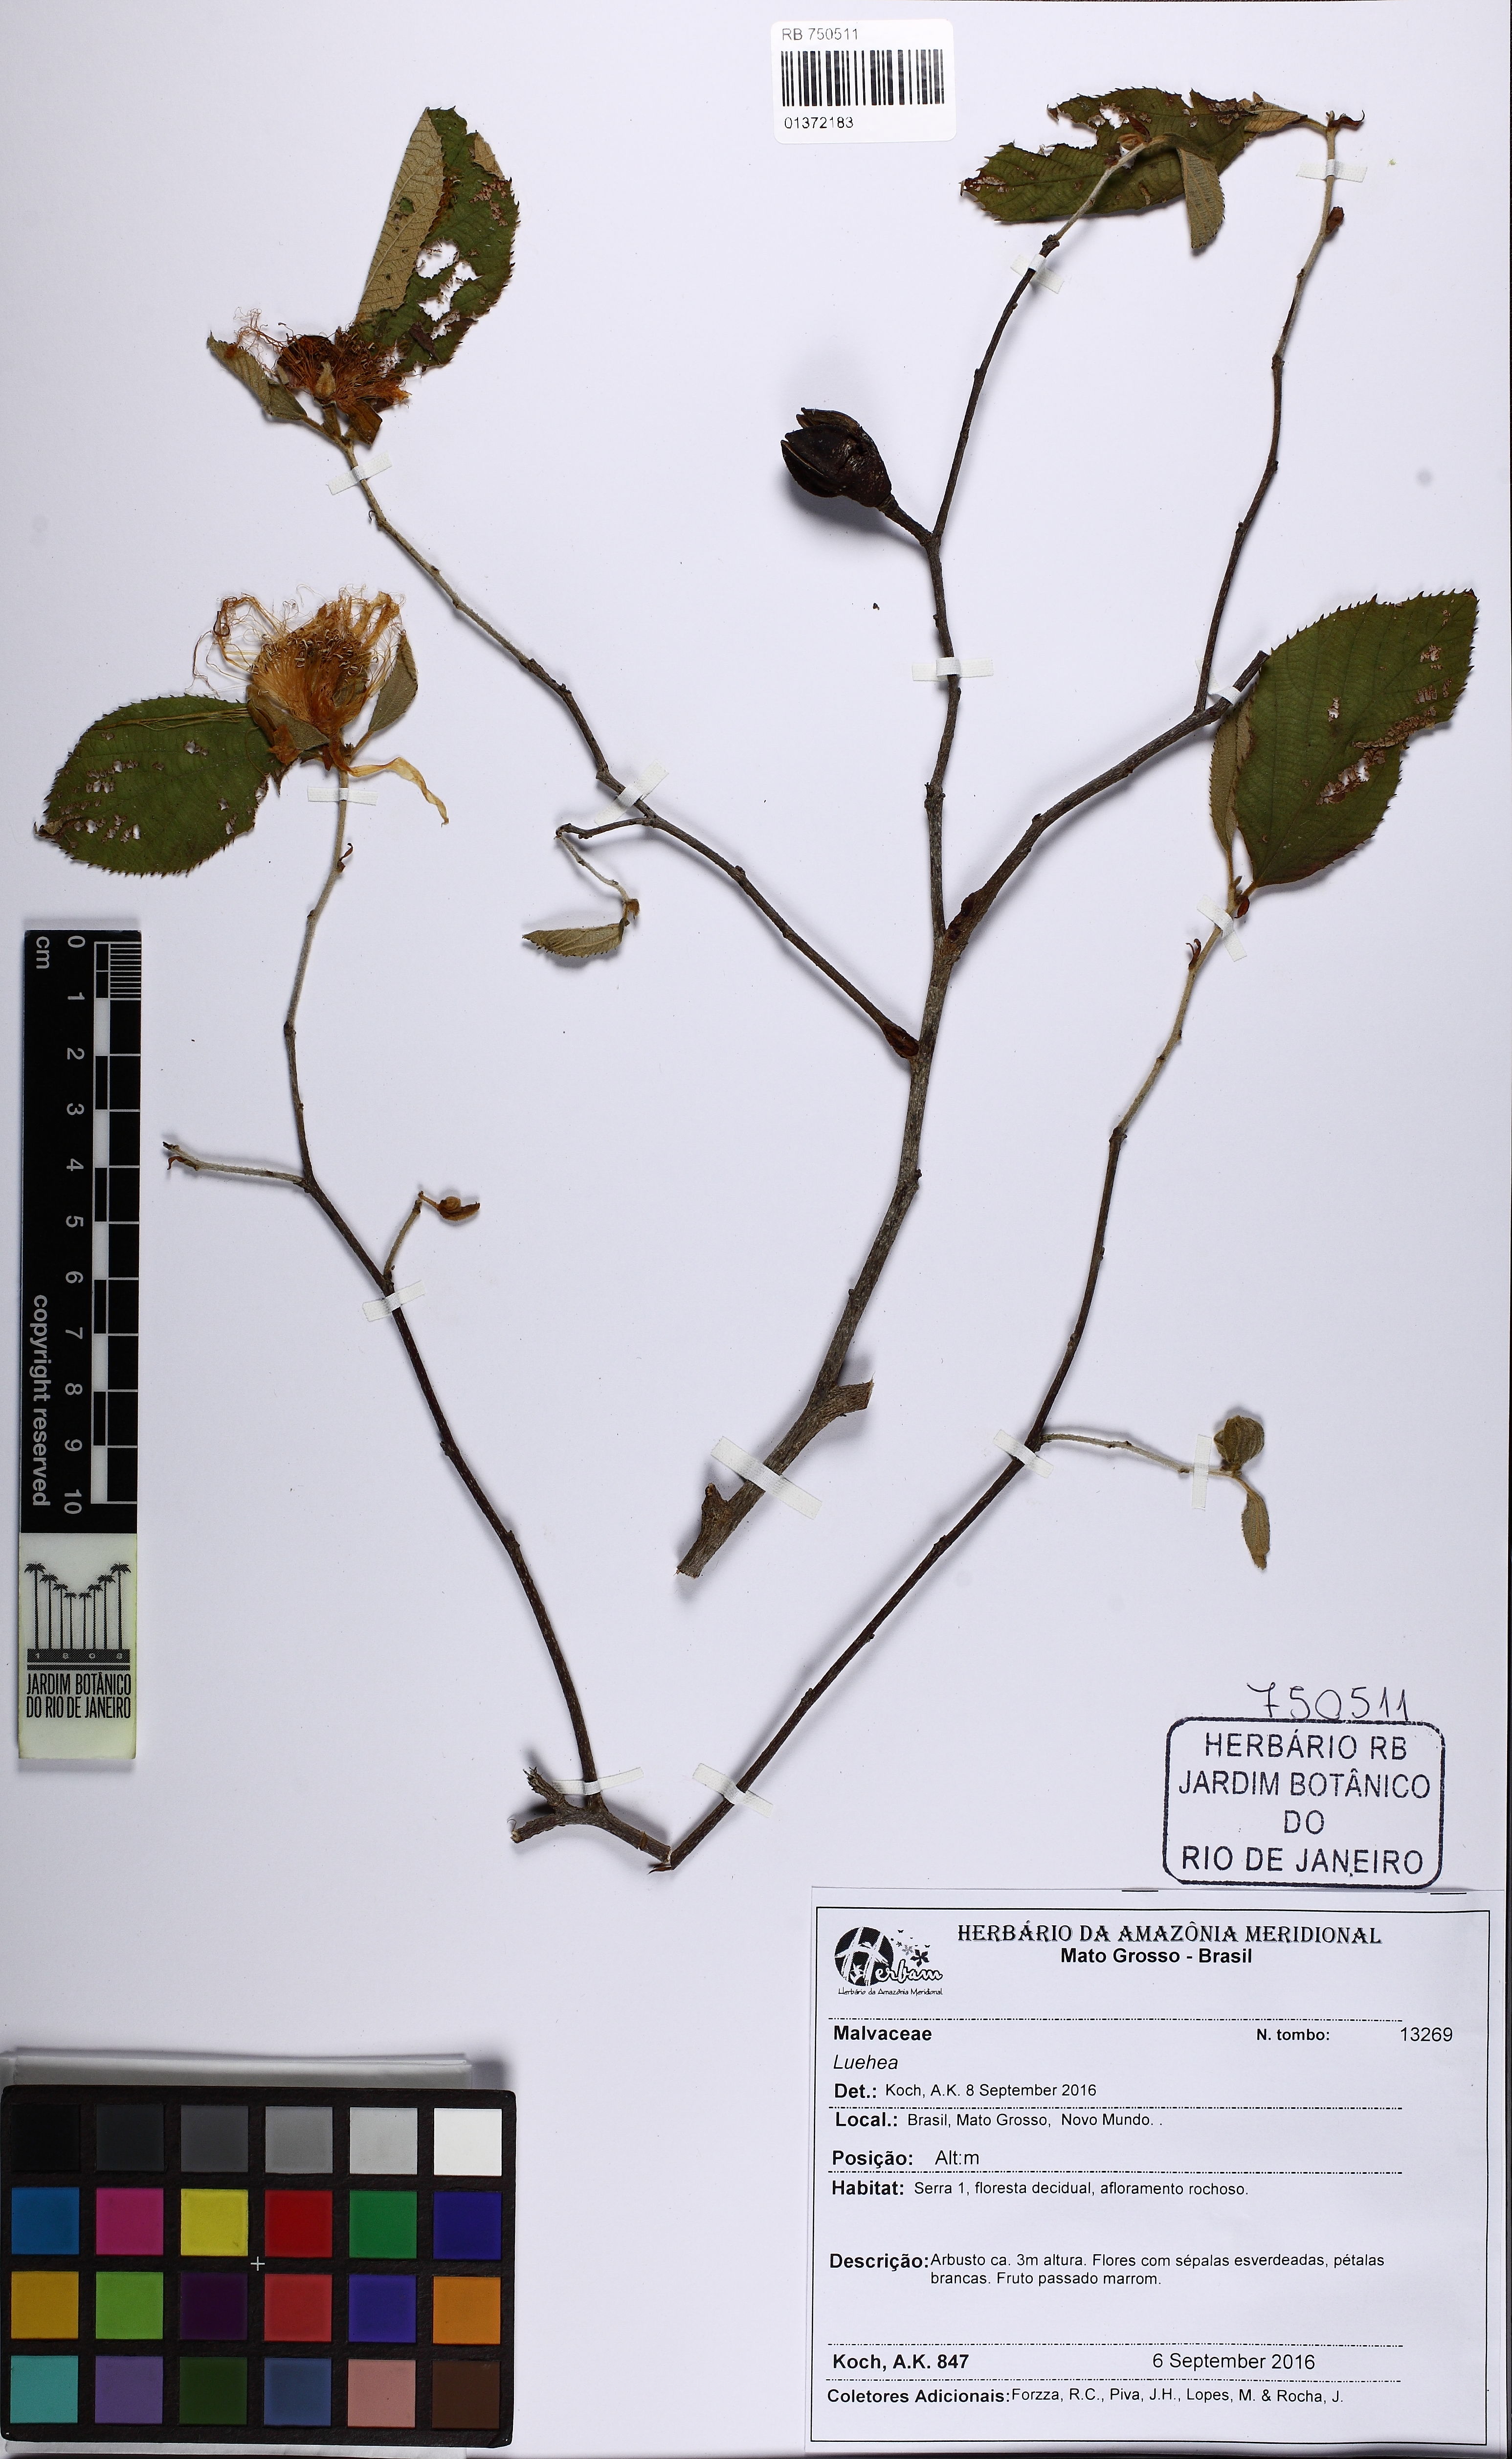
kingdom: Plantae
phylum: Tracheophyta
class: Magnoliopsida
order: Malvales
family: Malvaceae
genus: Luehea
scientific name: Luehea
